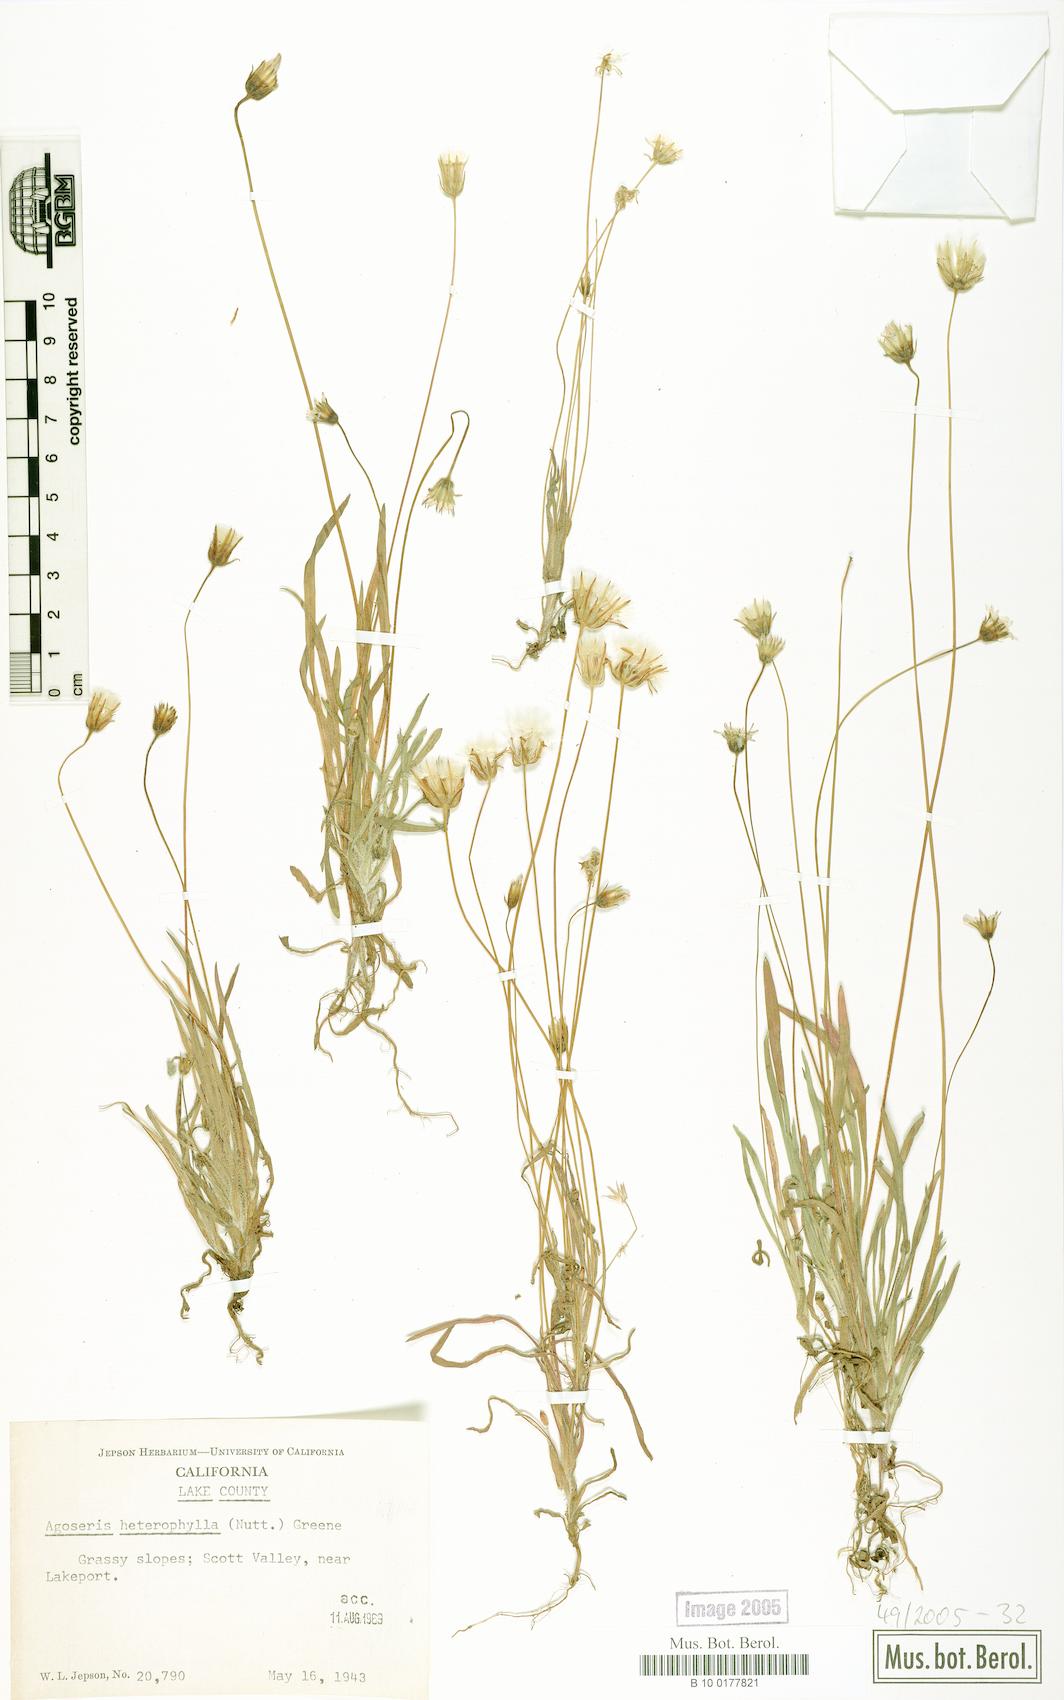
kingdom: Plantae
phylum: Tracheophyta
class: Magnoliopsida
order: Asterales
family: Asteraceae
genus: Agoseris
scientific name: Agoseris heterophylla
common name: Annual agoseris
